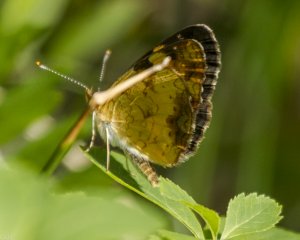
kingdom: Animalia
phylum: Arthropoda
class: Insecta
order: Lepidoptera
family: Nymphalidae
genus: Phyciodes
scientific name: Phyciodes tharos
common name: Northern Crescent
